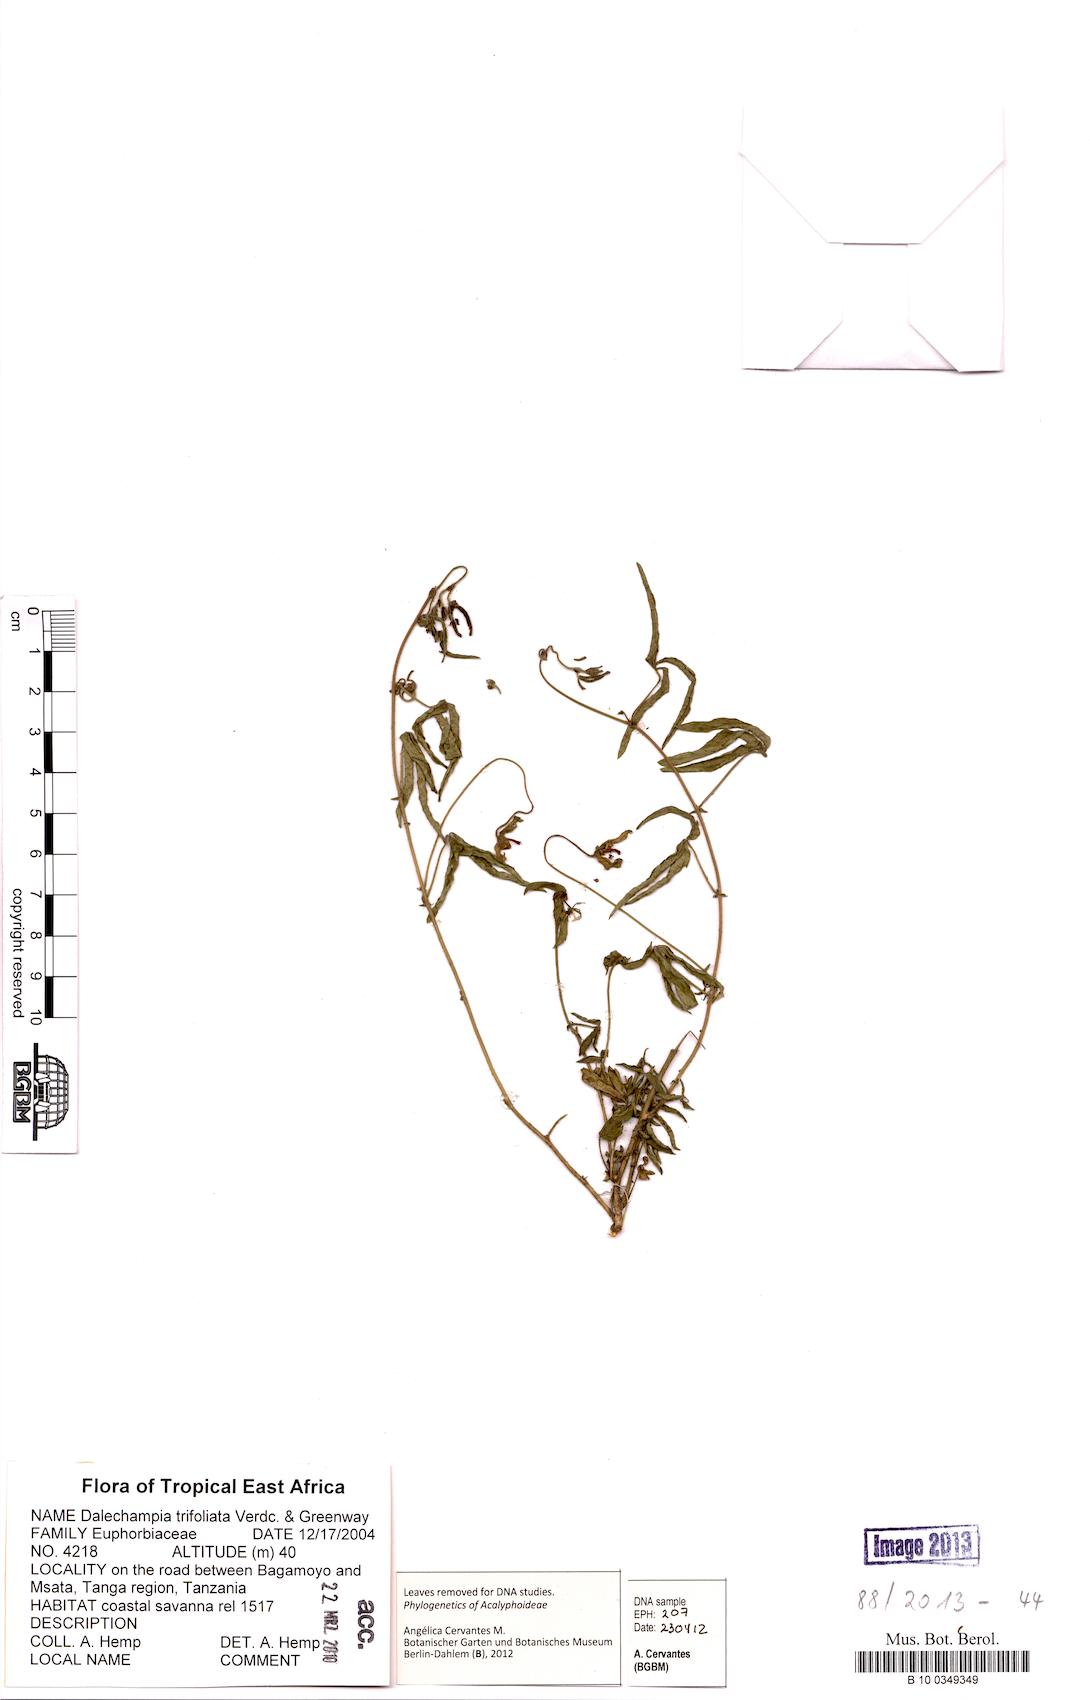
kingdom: Plantae
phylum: Tracheophyta
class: Magnoliopsida
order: Malpighiales
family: Euphorbiaceae
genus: Dalechampia
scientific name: Dalechampia trifoliata
